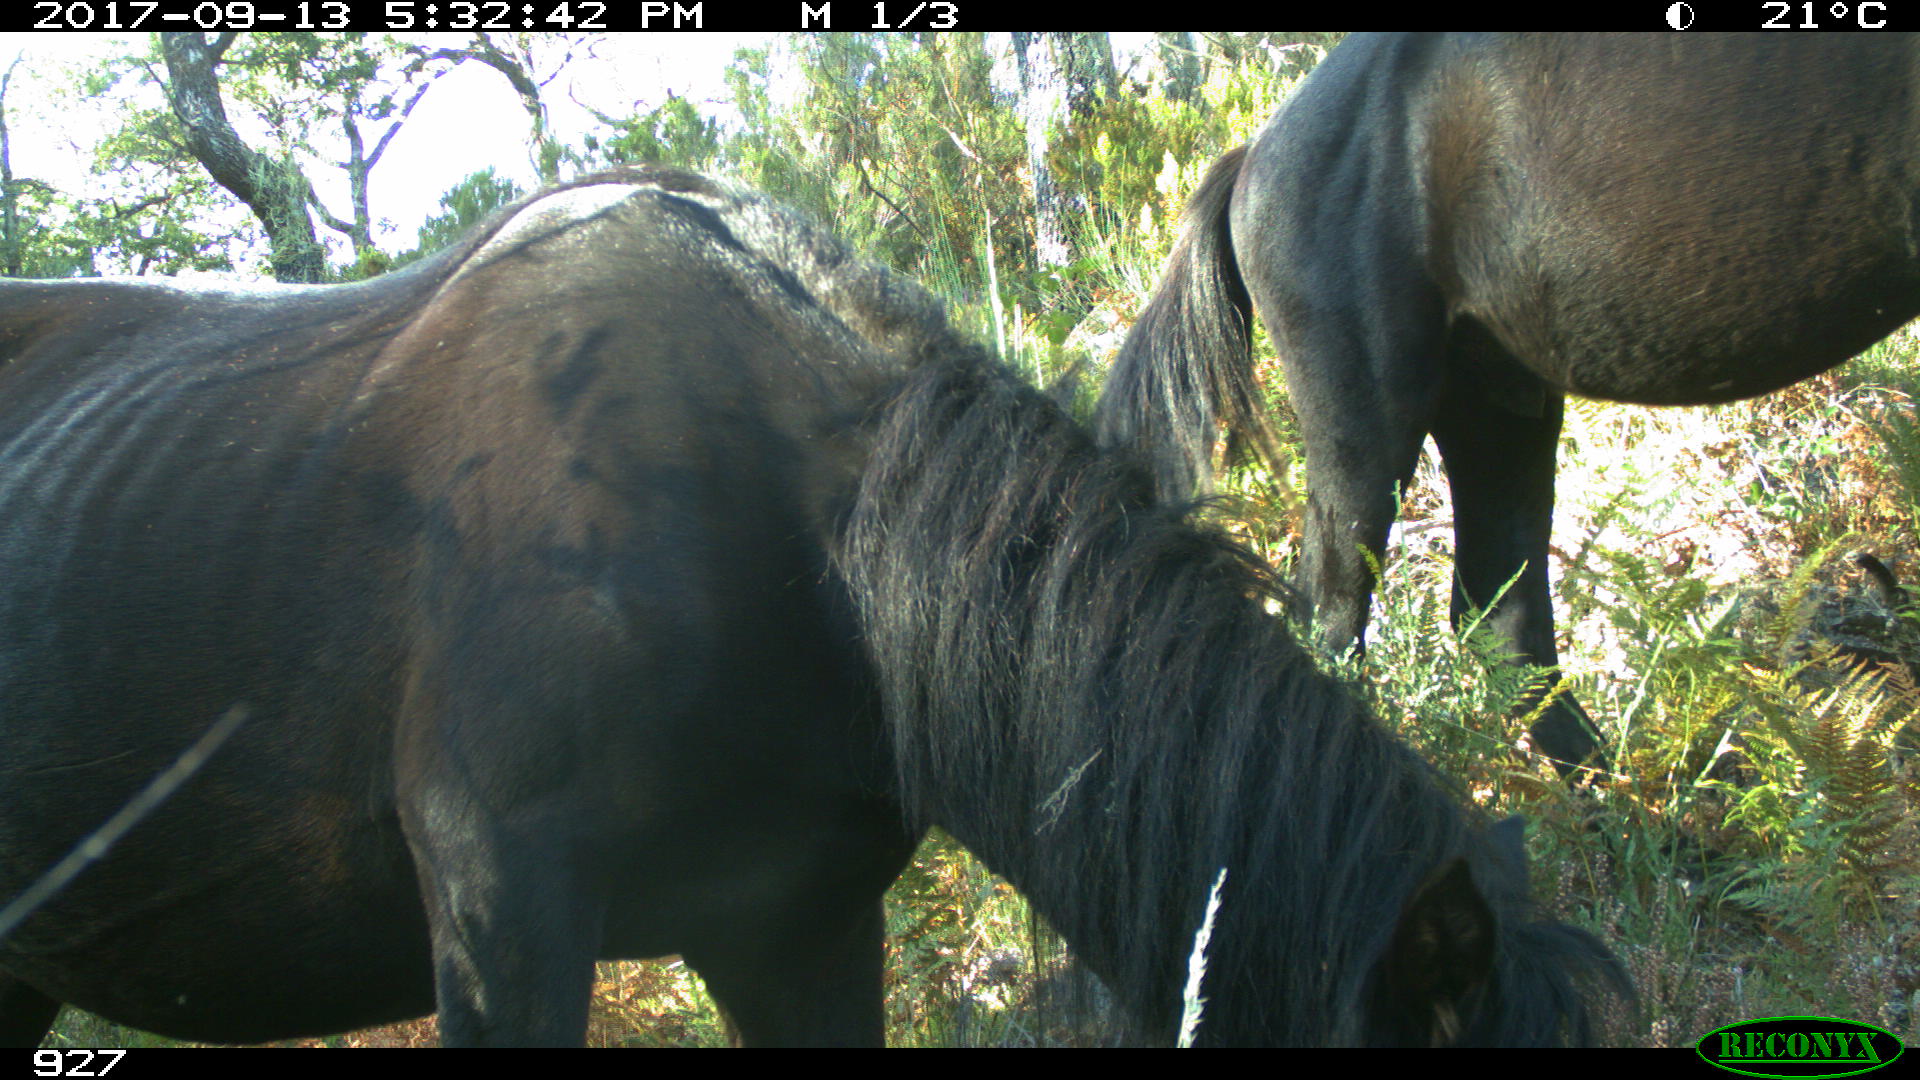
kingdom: Animalia
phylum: Chordata
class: Mammalia
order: Perissodactyla
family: Equidae
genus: Equus
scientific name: Equus caballus
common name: Horse
